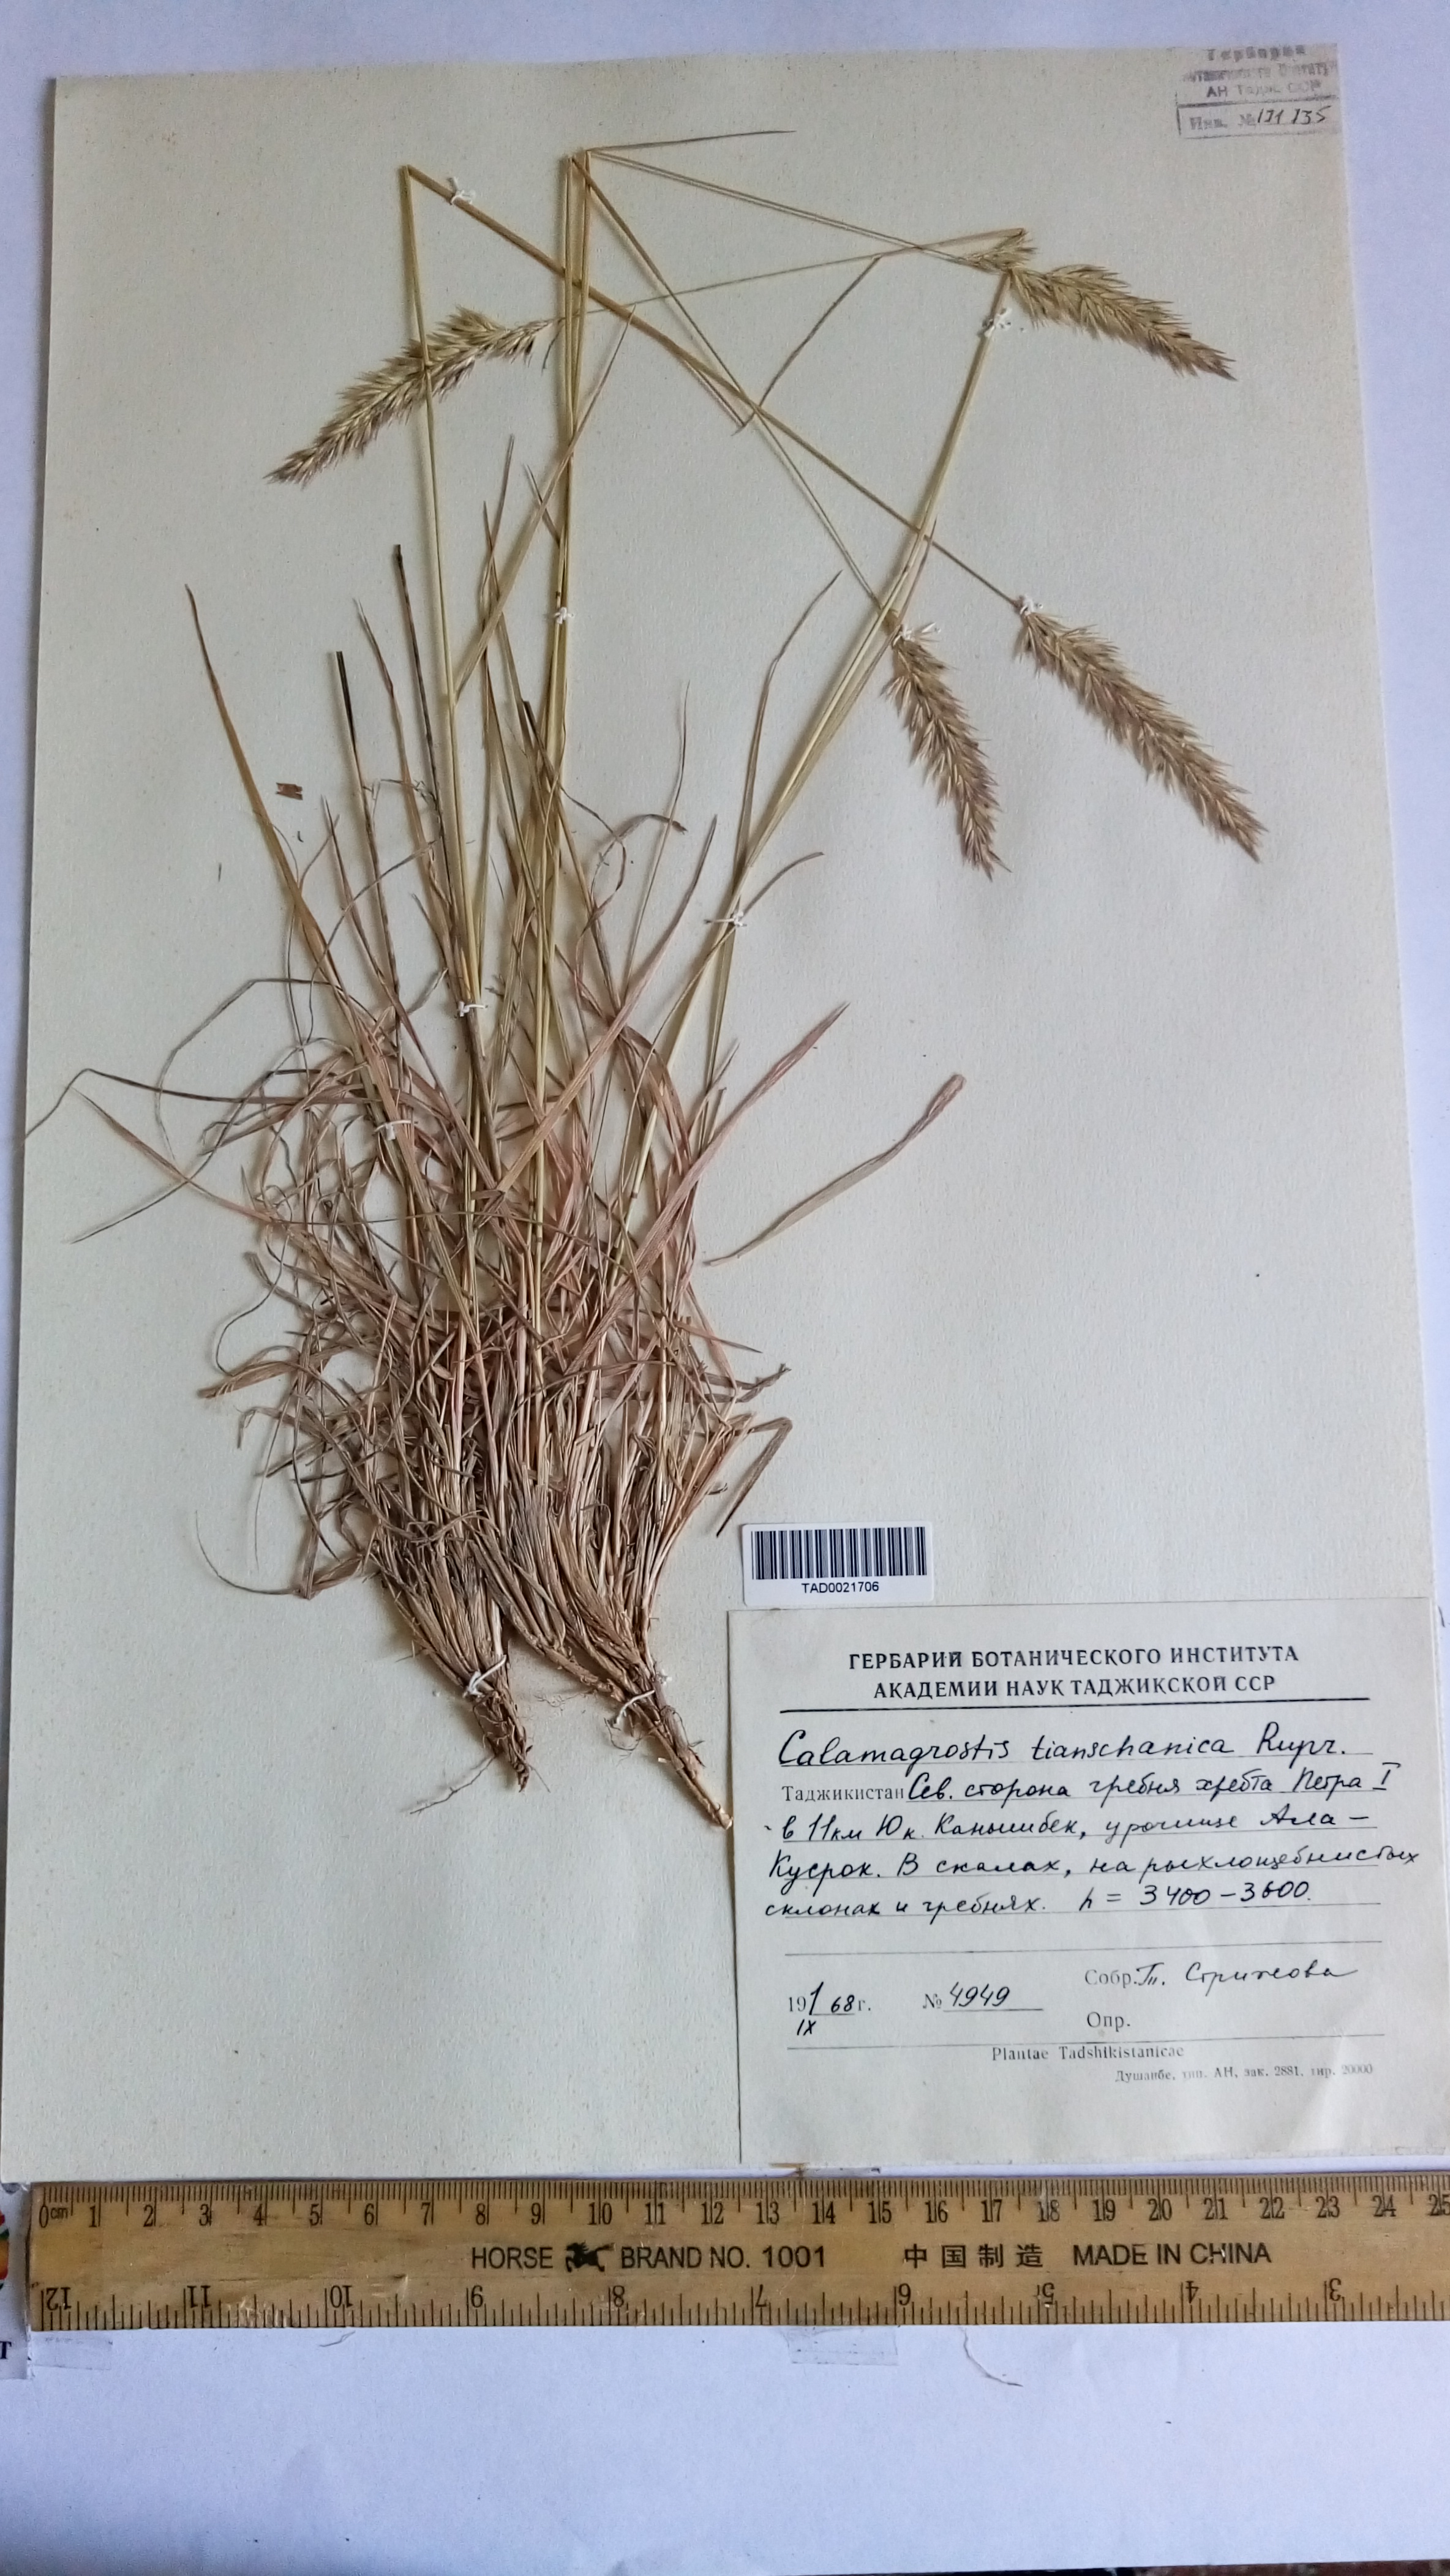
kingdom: Plantae
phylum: Tracheophyta
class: Liliopsida
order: Poales
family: Poaceae
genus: Calamagrostis
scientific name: Calamagrostis tianschanica
